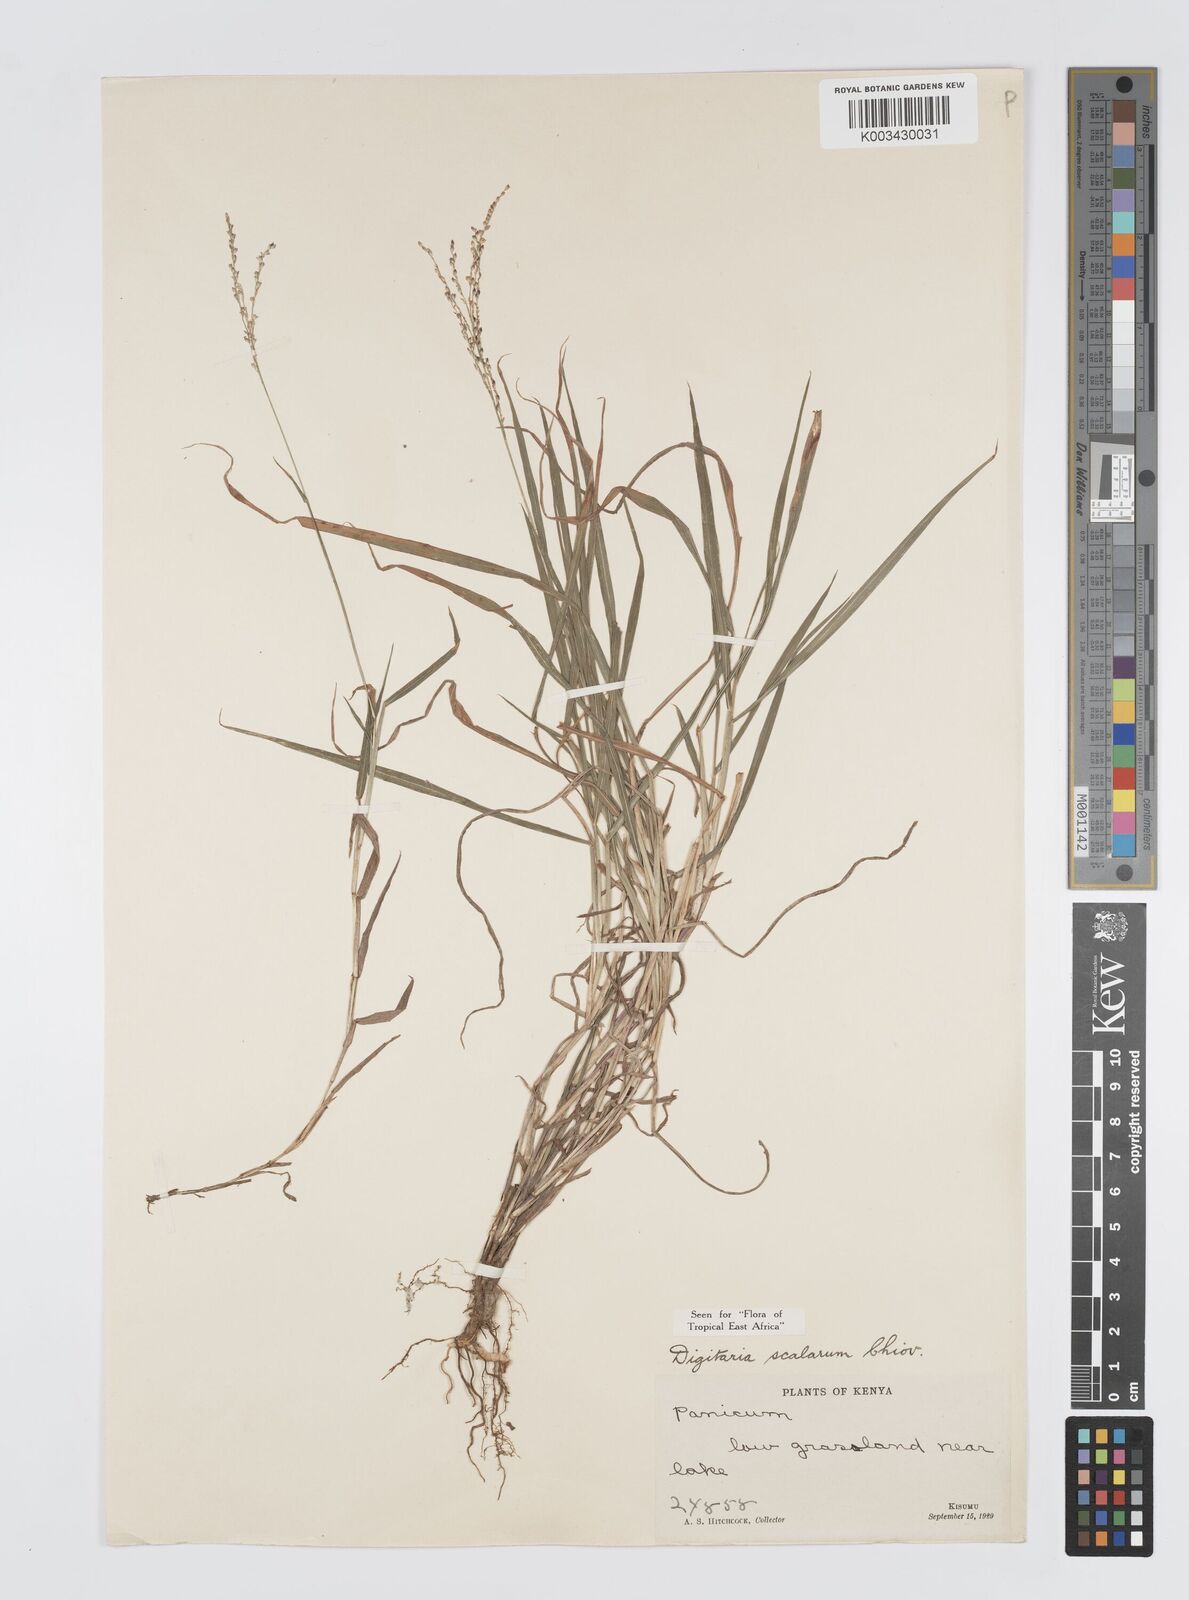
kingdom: Plantae
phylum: Tracheophyta
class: Liliopsida
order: Poales
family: Poaceae
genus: Digitaria
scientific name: Digitaria abyssinica
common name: African couchgrass
